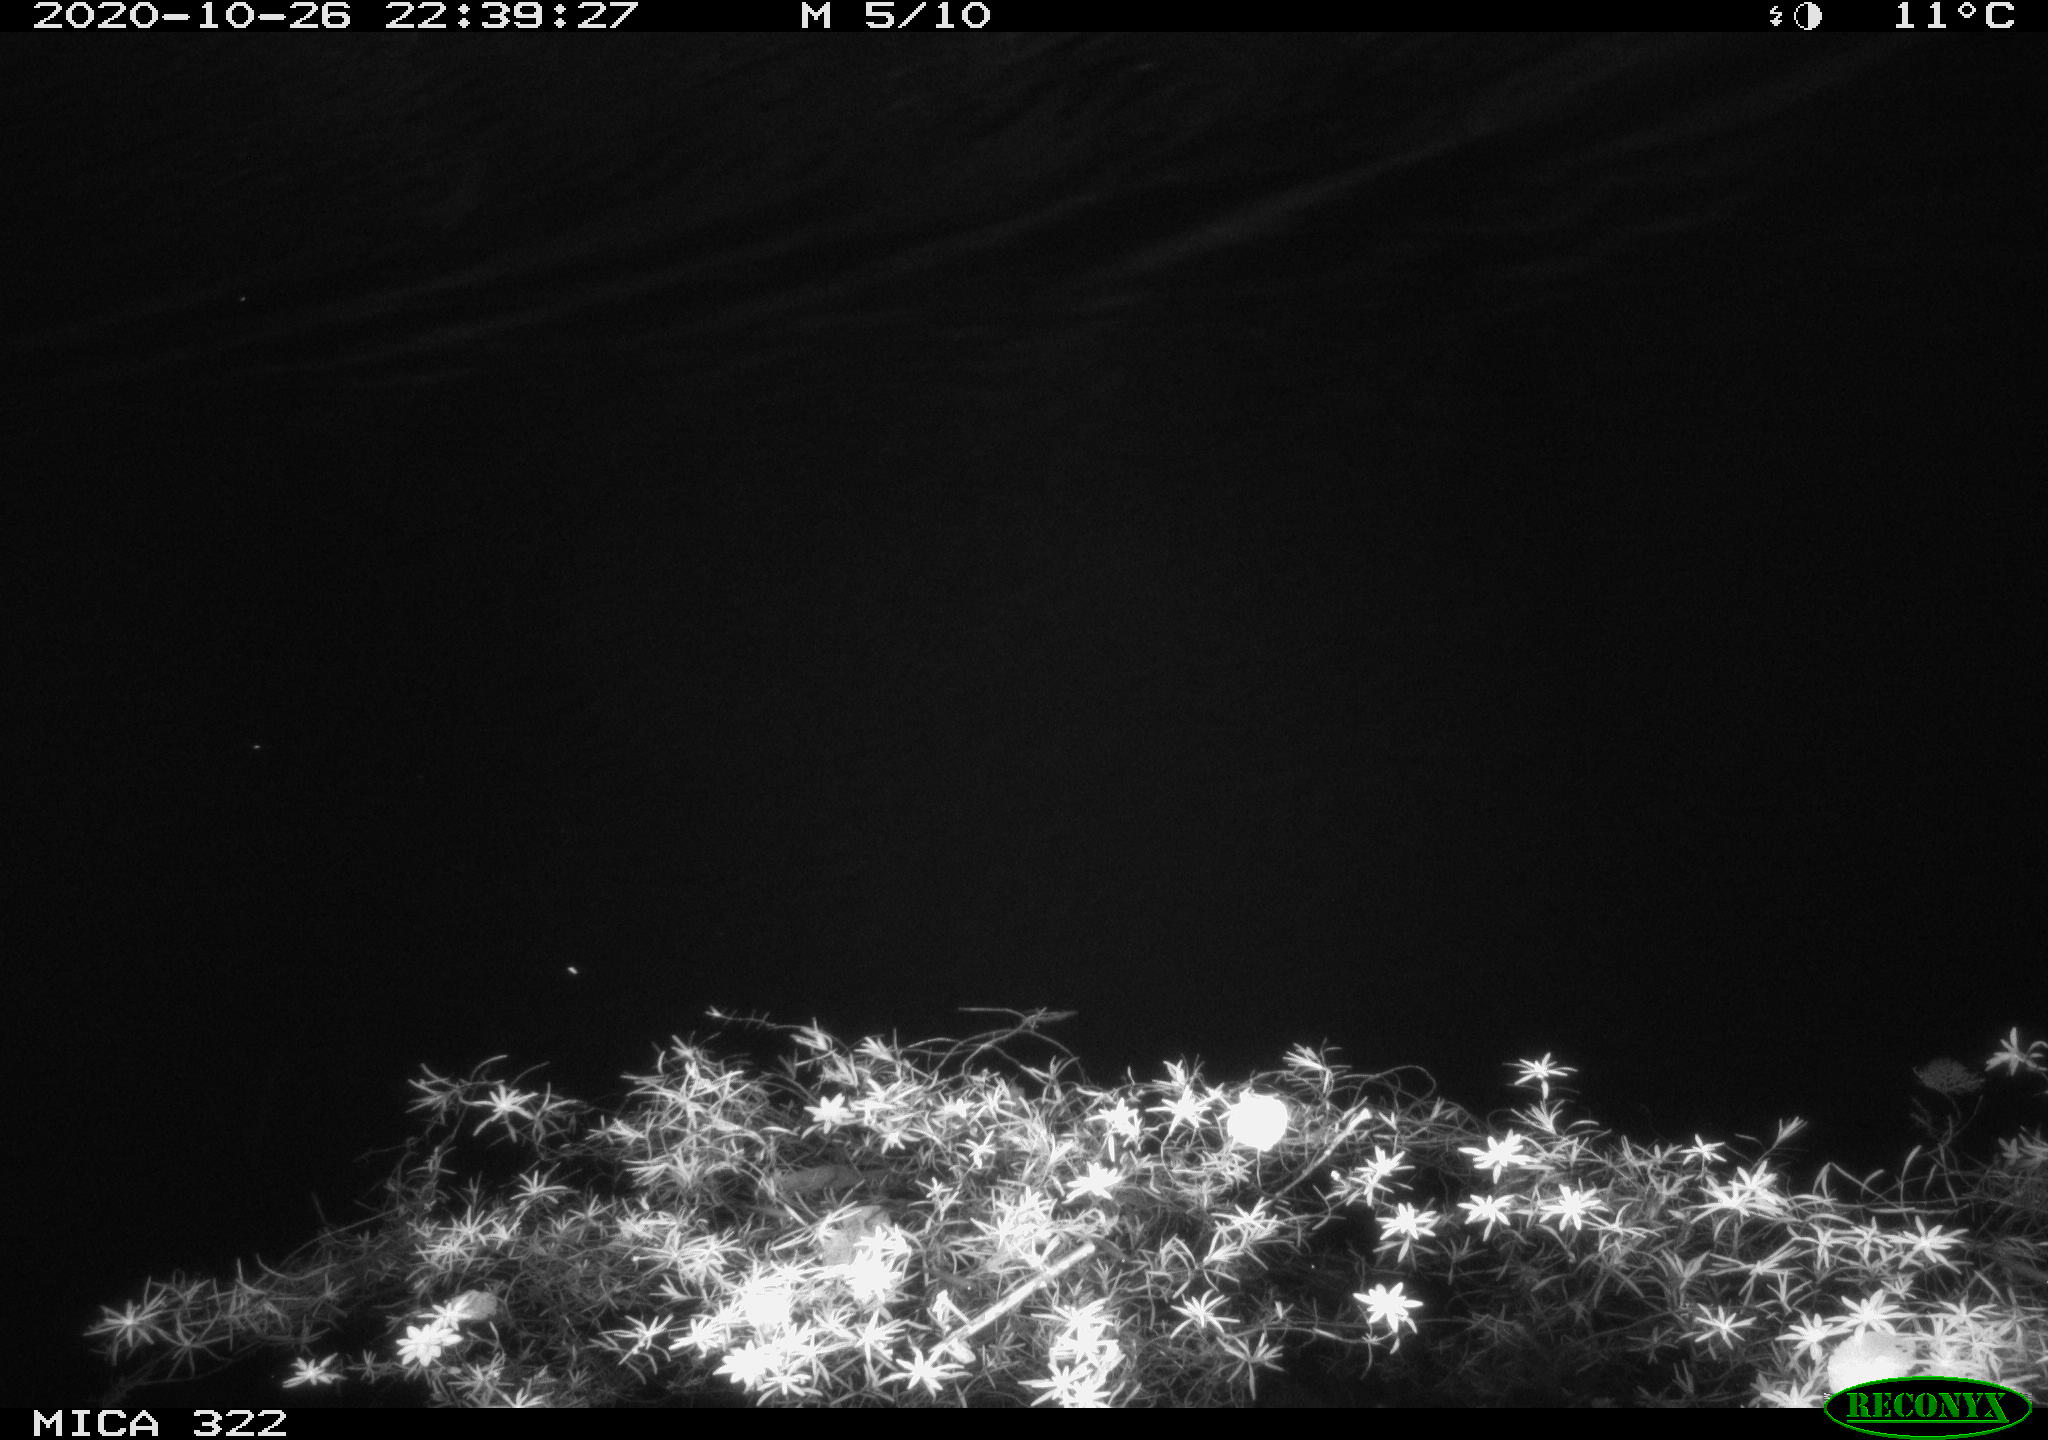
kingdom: Animalia
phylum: Chordata
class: Aves
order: Anseriformes
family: Anatidae
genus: Anas
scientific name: Anas platyrhynchos
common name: Mallard
